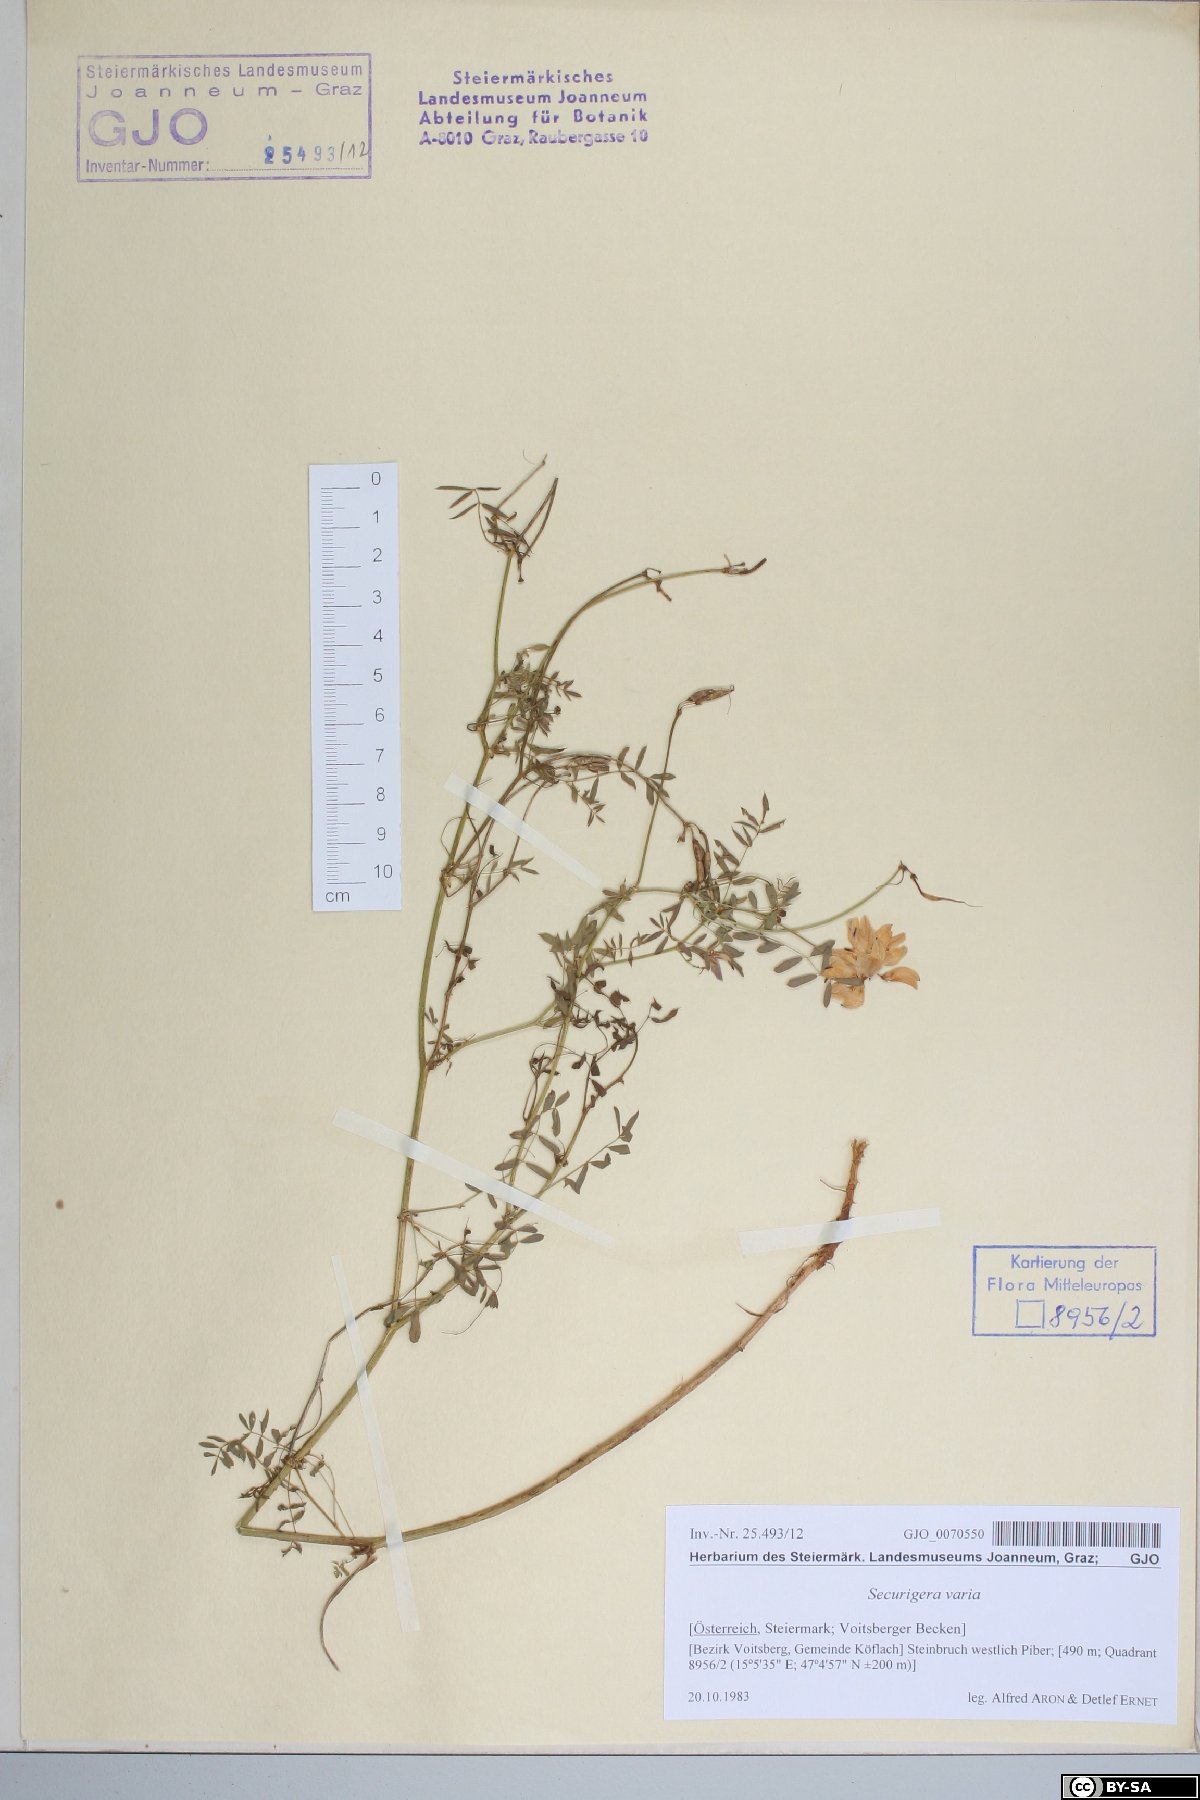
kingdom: Plantae
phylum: Tracheophyta
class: Magnoliopsida
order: Fabales
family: Fabaceae
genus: Coronilla
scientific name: Coronilla varia
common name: Crownvetch
